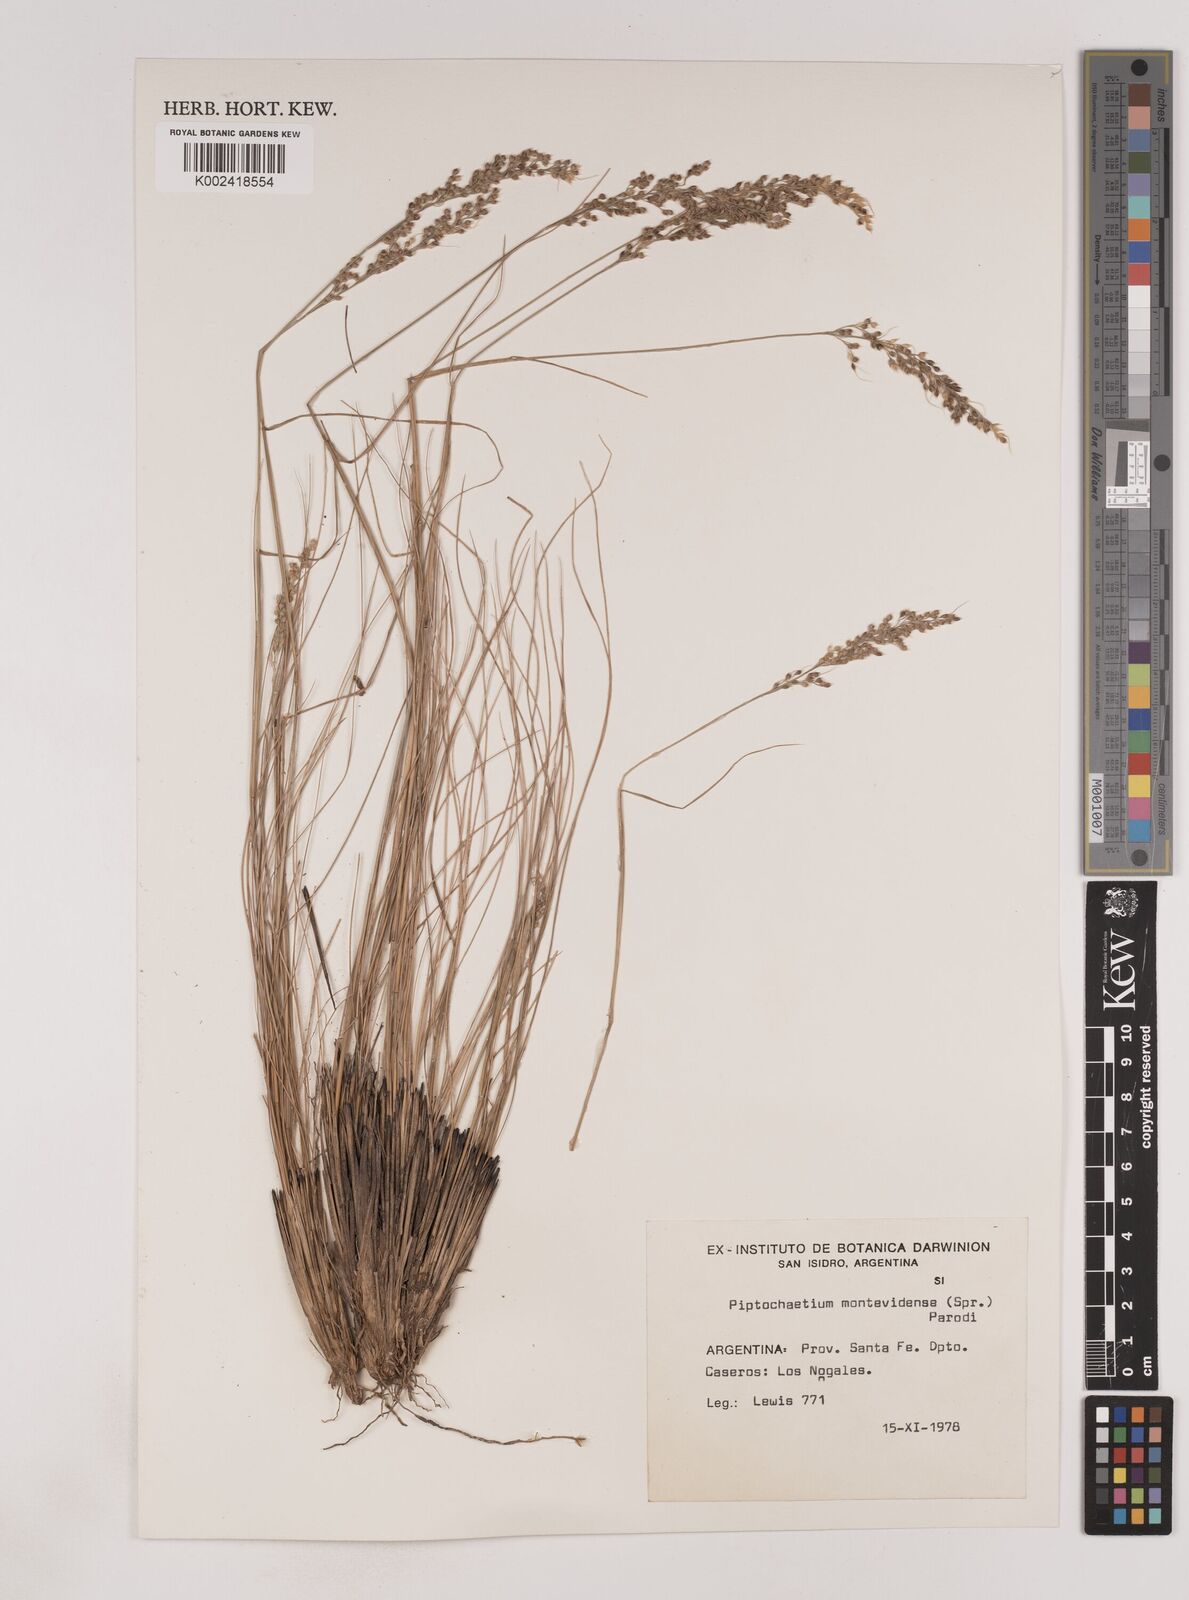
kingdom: Plantae
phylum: Tracheophyta
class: Liliopsida
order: Poales
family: Poaceae
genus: Piptochaetium
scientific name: Piptochaetium montevidense
